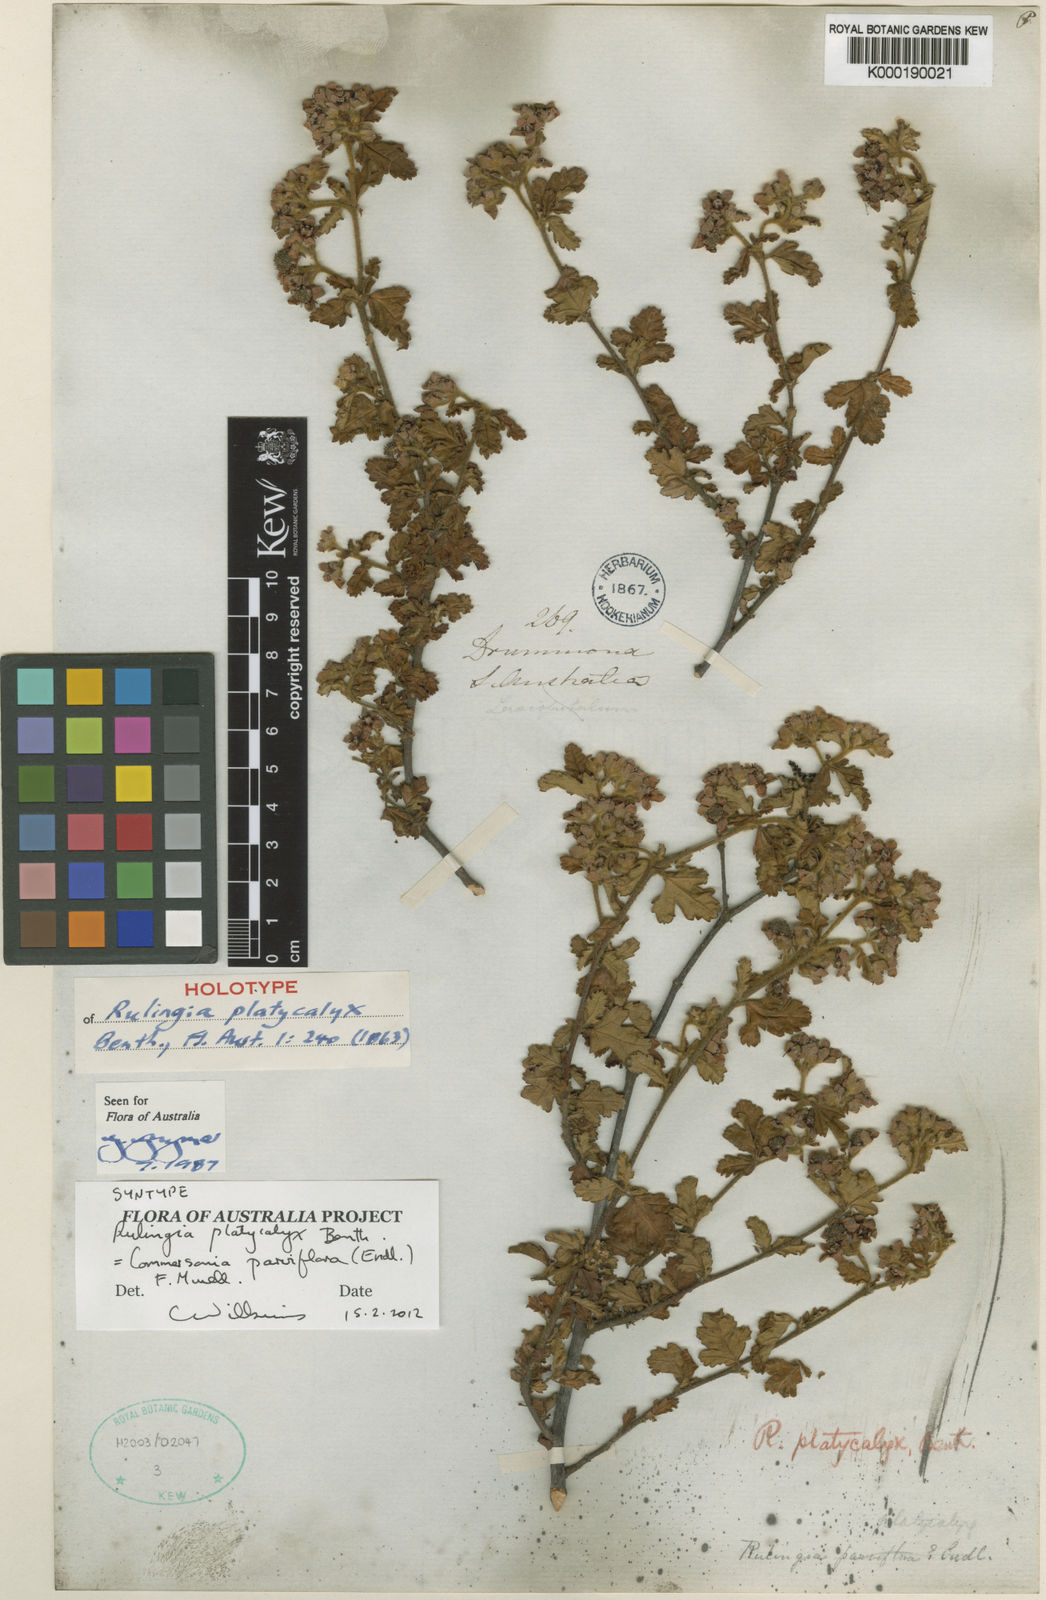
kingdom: Plantae
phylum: Tracheophyta
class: Magnoliopsida
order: Malvales
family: Malvaceae
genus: Commersonia
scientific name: Commersonia parviflora
